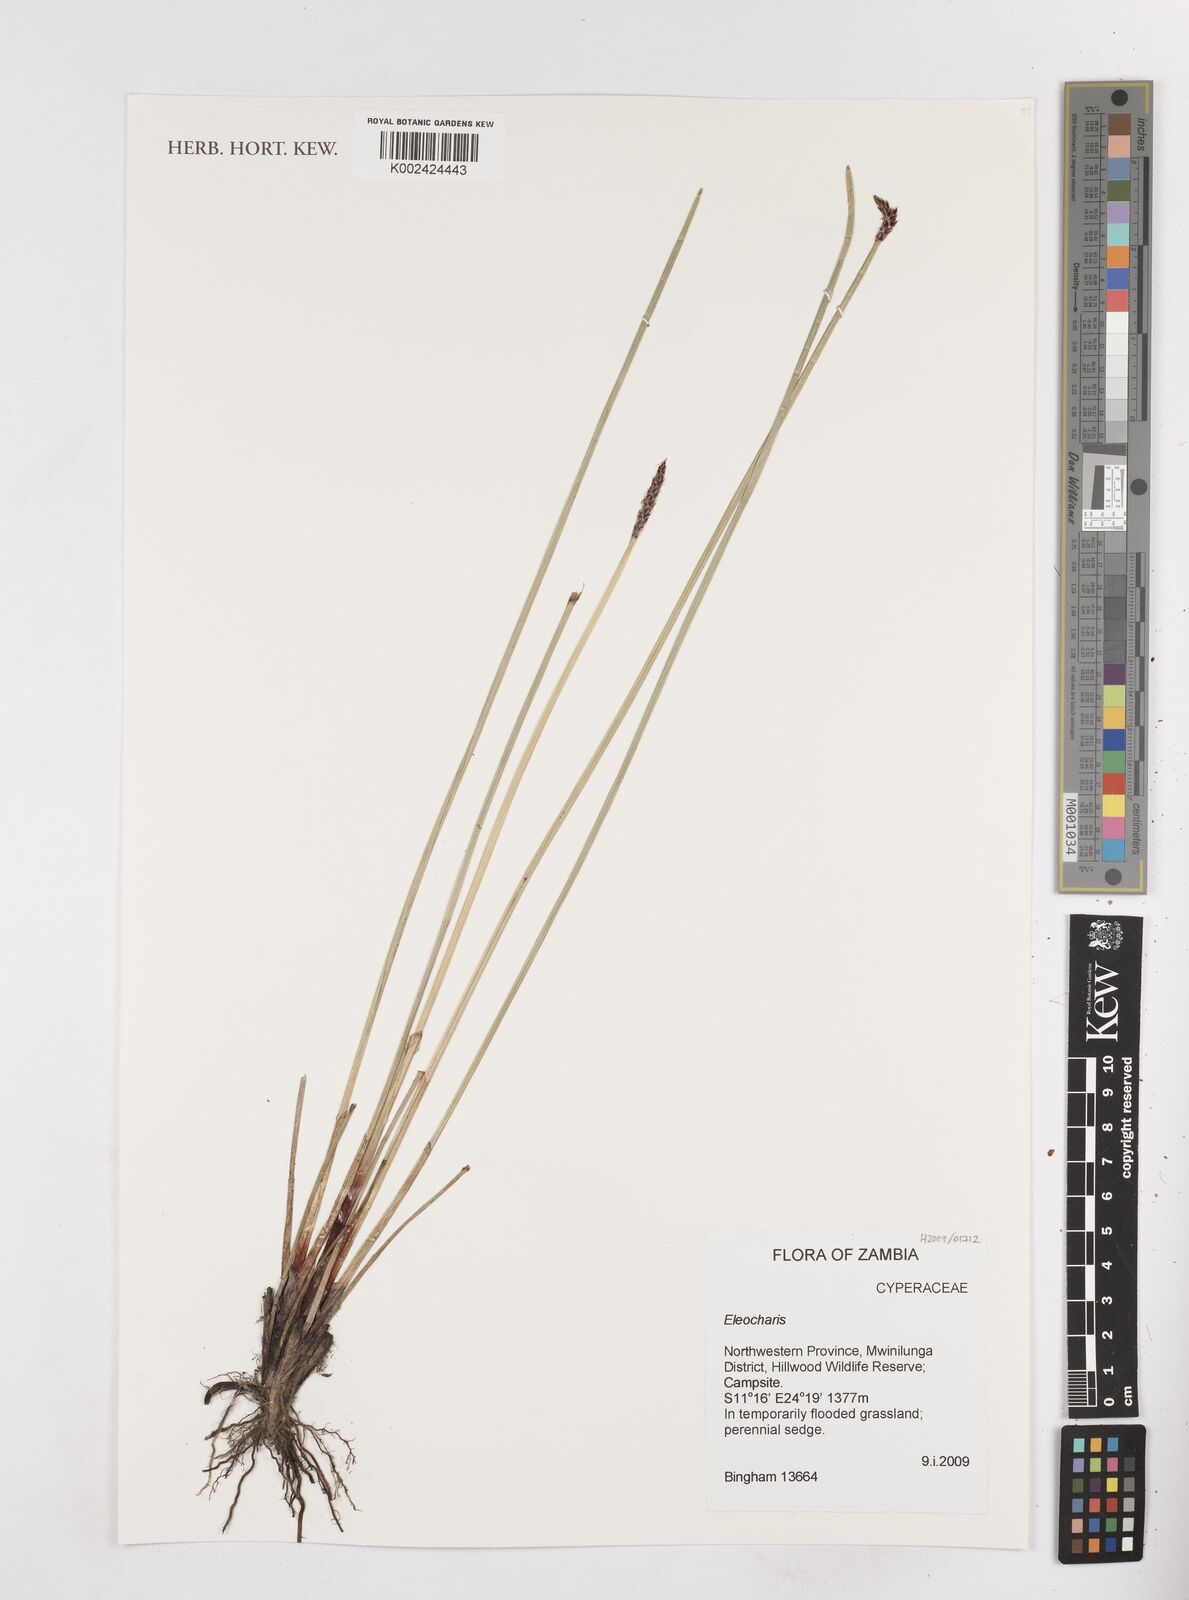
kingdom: Plantae
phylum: Tracheophyta
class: Liliopsida
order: Poales
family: Cyperaceae
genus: Eleocharis
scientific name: Eleocharis
